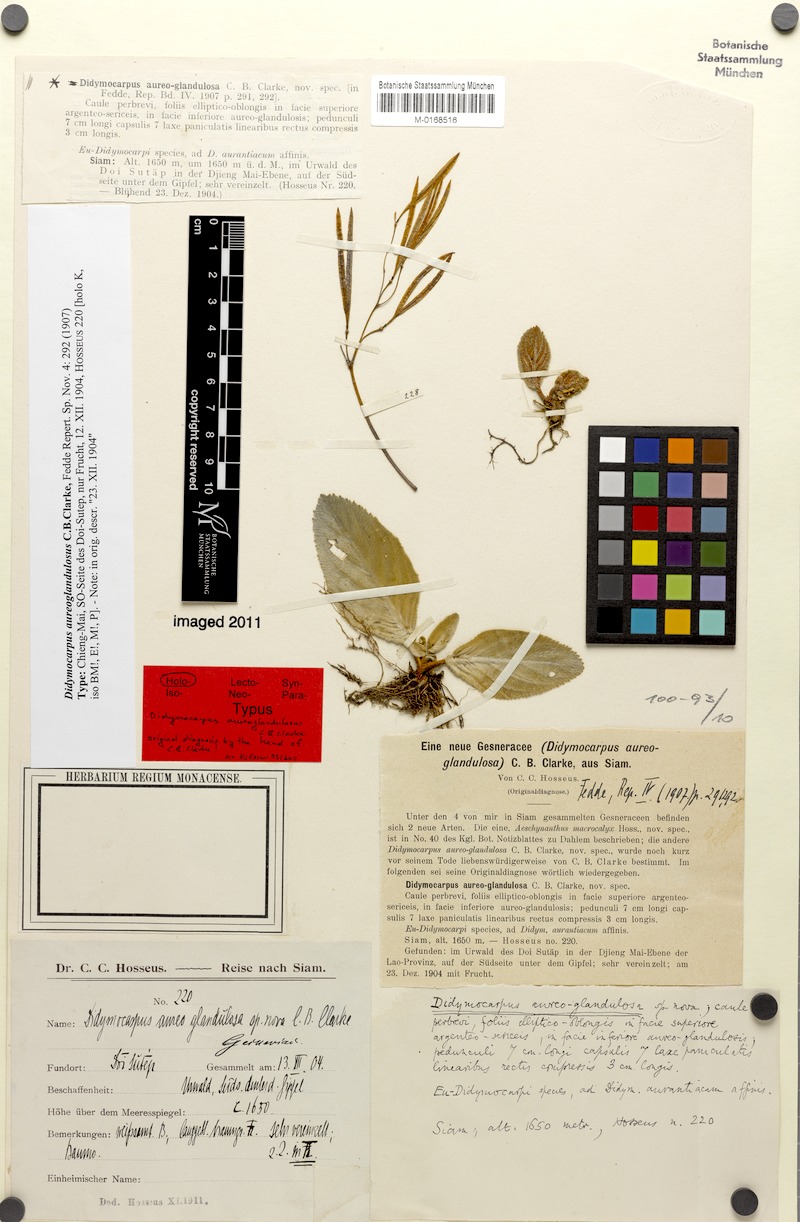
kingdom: Plantae
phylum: Tracheophyta
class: Magnoliopsida
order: Lamiales
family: Gesneriaceae
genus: Didymocarpus
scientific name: Didymocarpus aureoglandulosa
